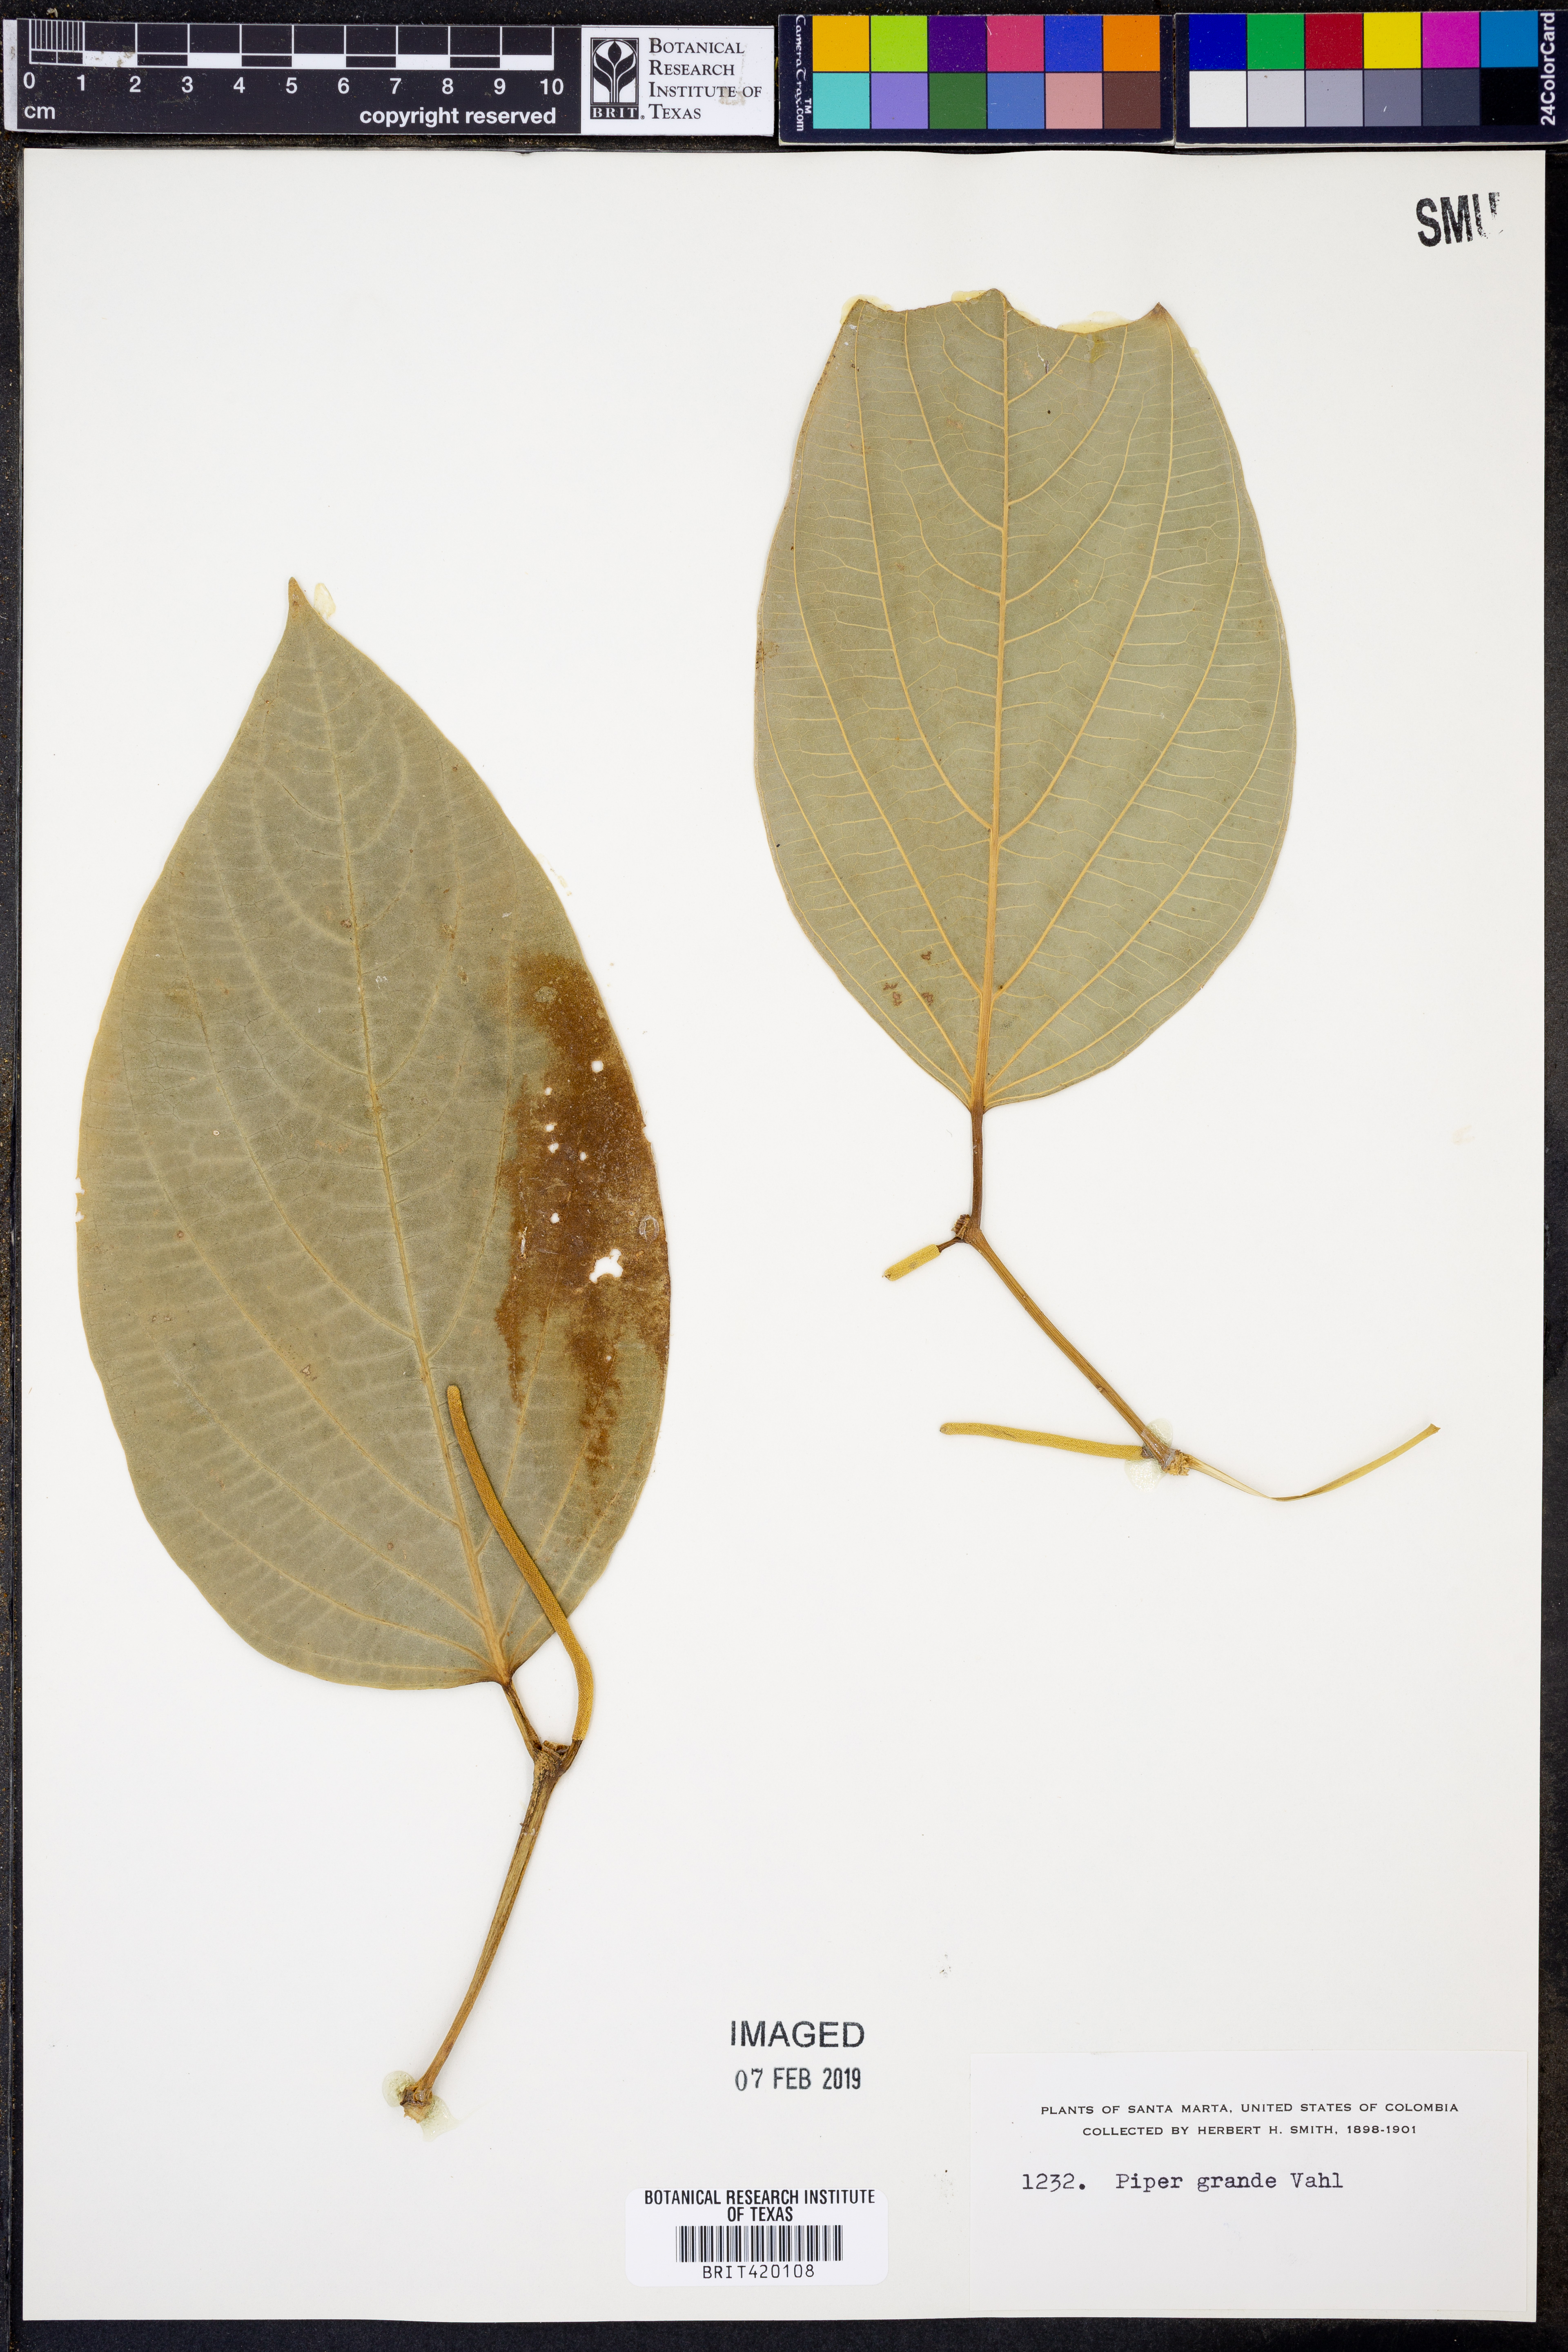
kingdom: Plantae
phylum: Tracheophyta
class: Magnoliopsida
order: Piperales
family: Piperaceae
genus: Piper
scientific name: Piper grande
